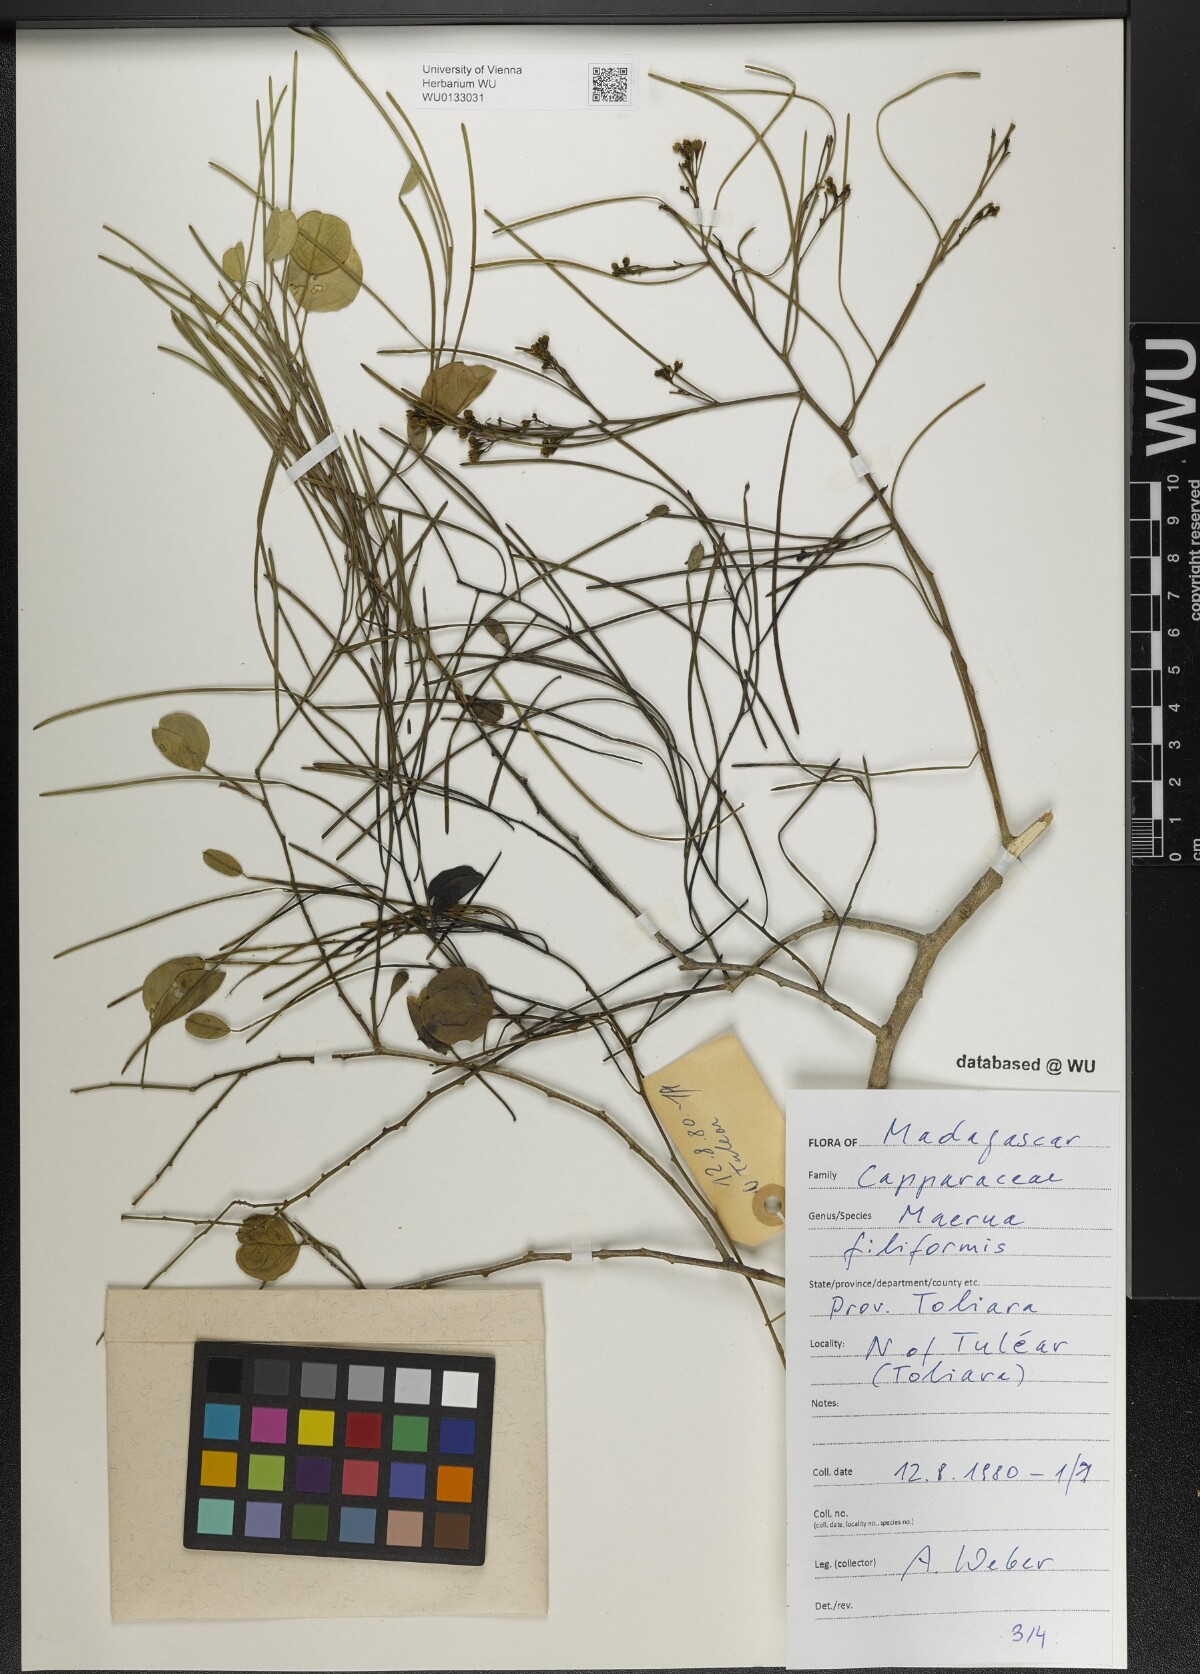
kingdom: Plantae
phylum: Tracheophyta
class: Magnoliopsida
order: Brassicales
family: Capparaceae
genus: Maerua
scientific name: Maerua filiformis
